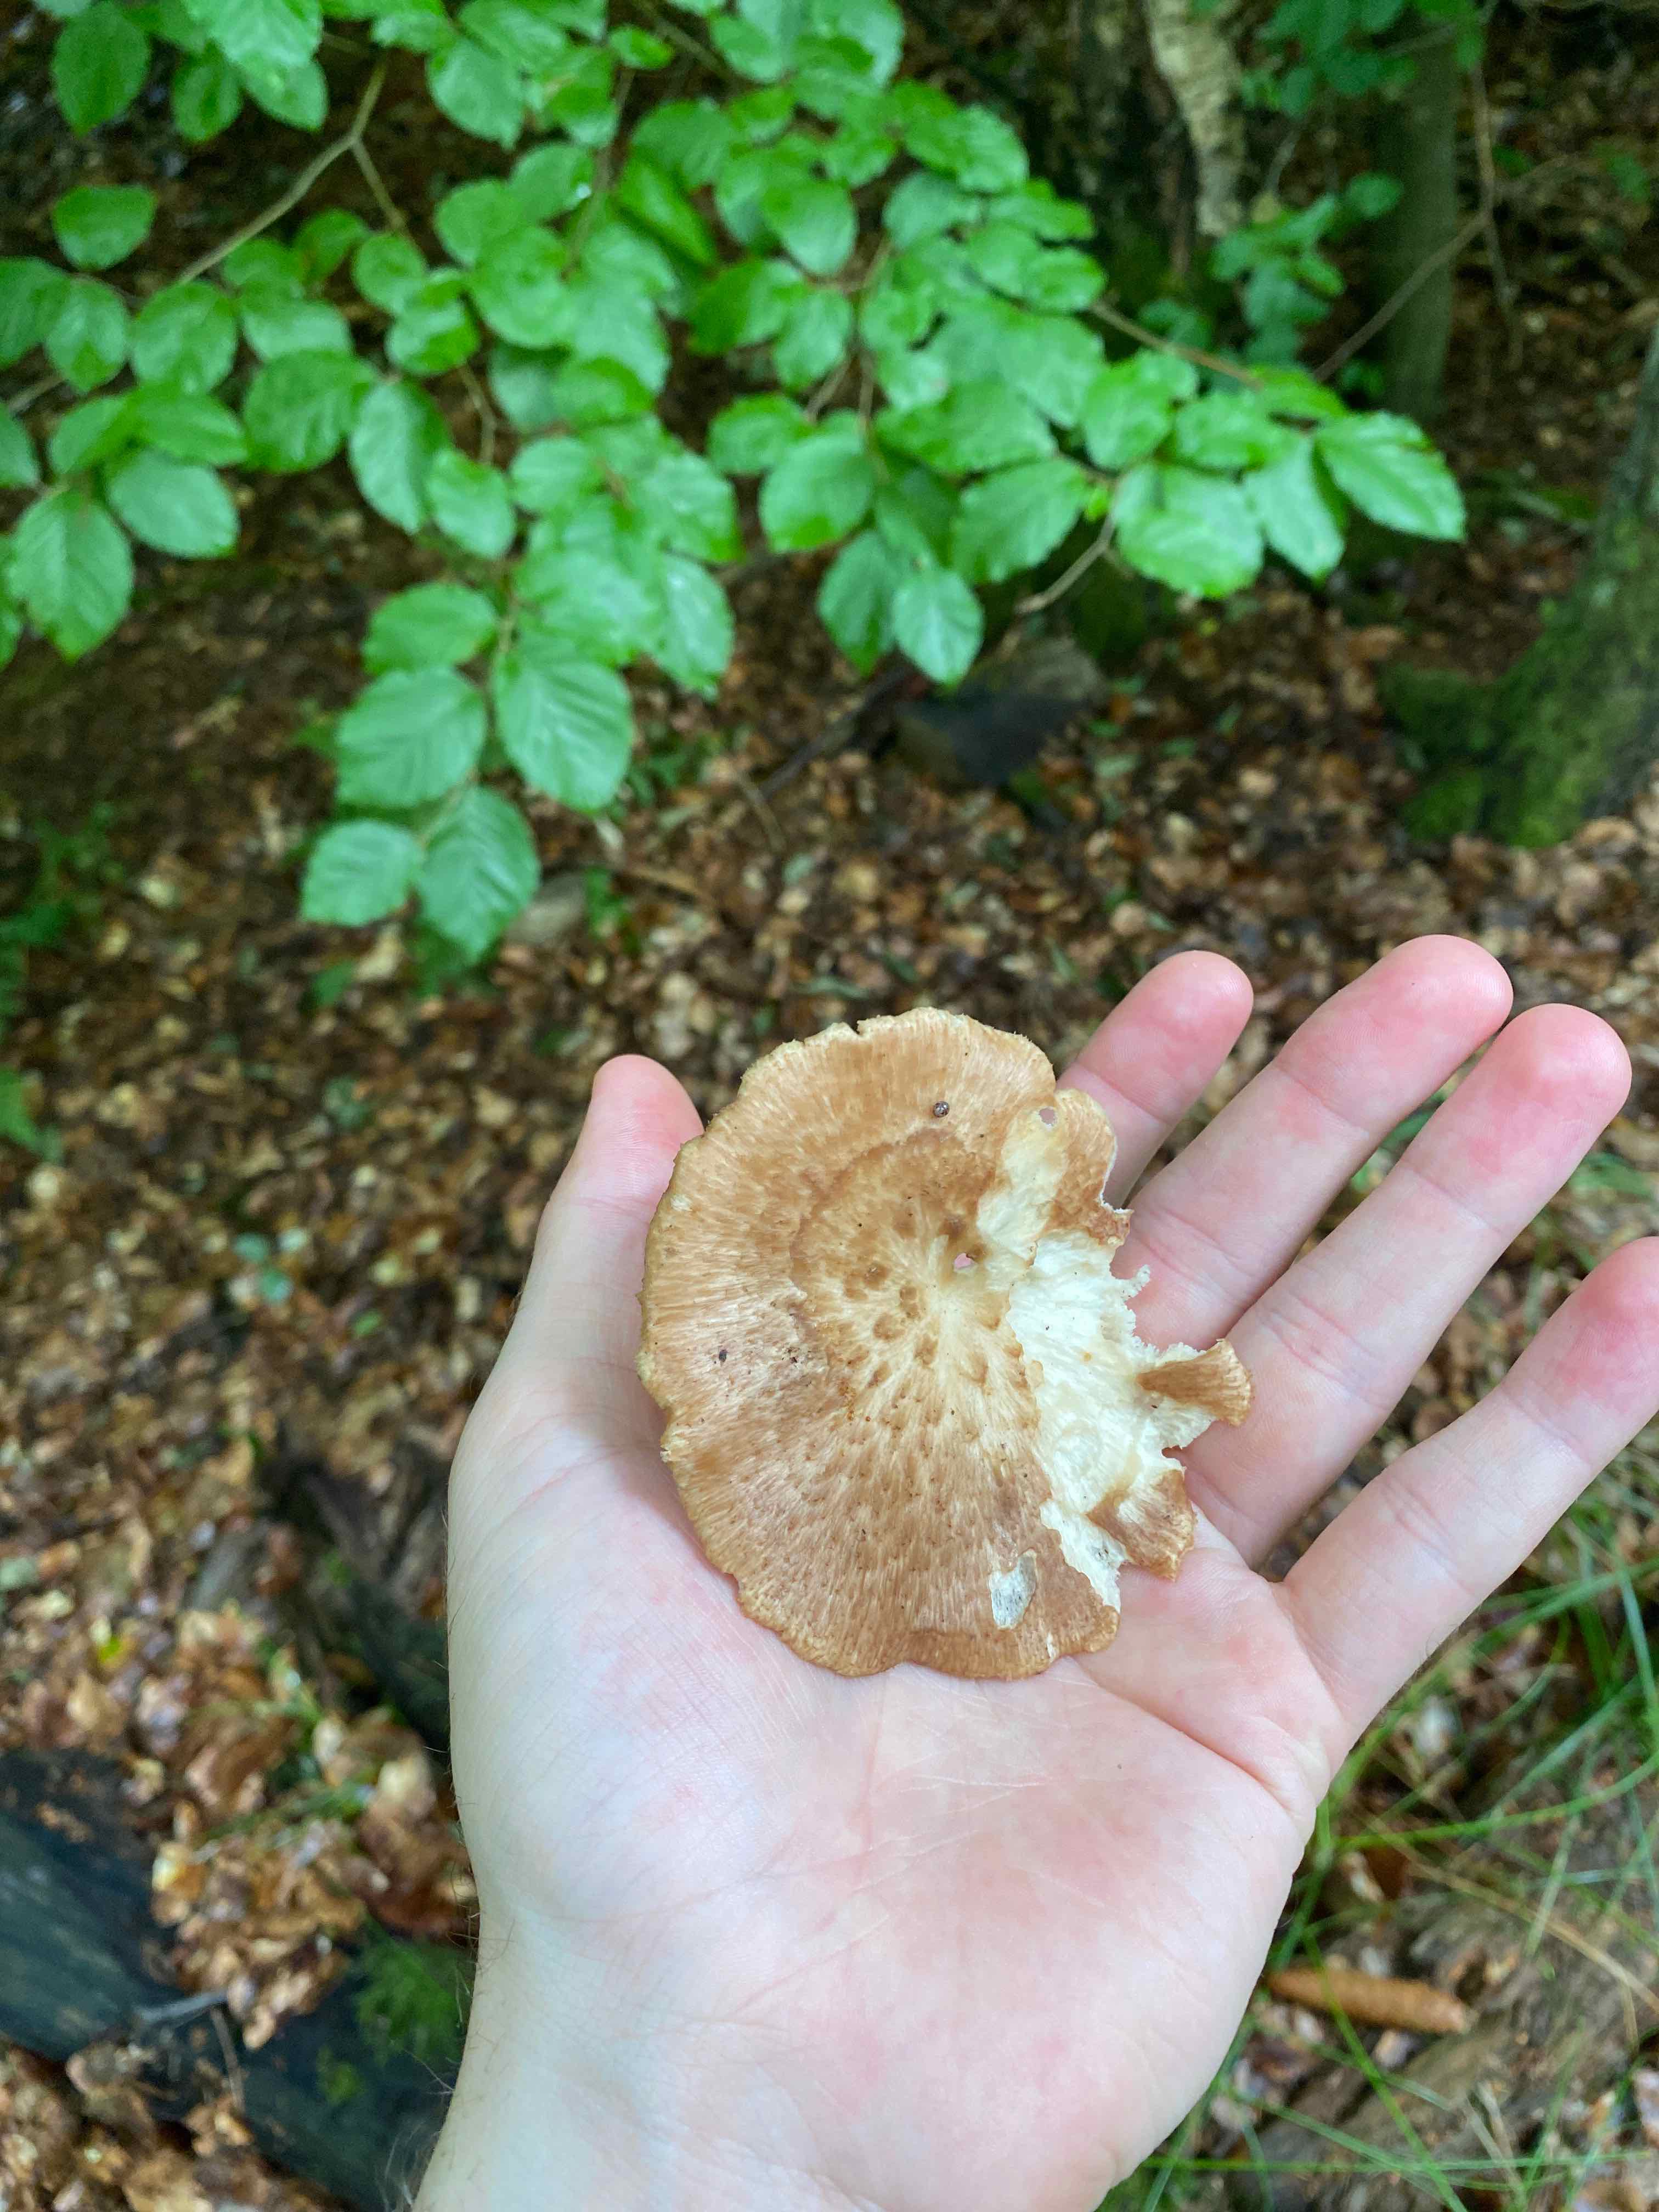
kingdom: Fungi
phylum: Basidiomycota
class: Agaricomycetes
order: Polyporales
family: Polyporaceae
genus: Polyporus
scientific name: Polyporus tuberaster
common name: knoldet stilkporesvamp
